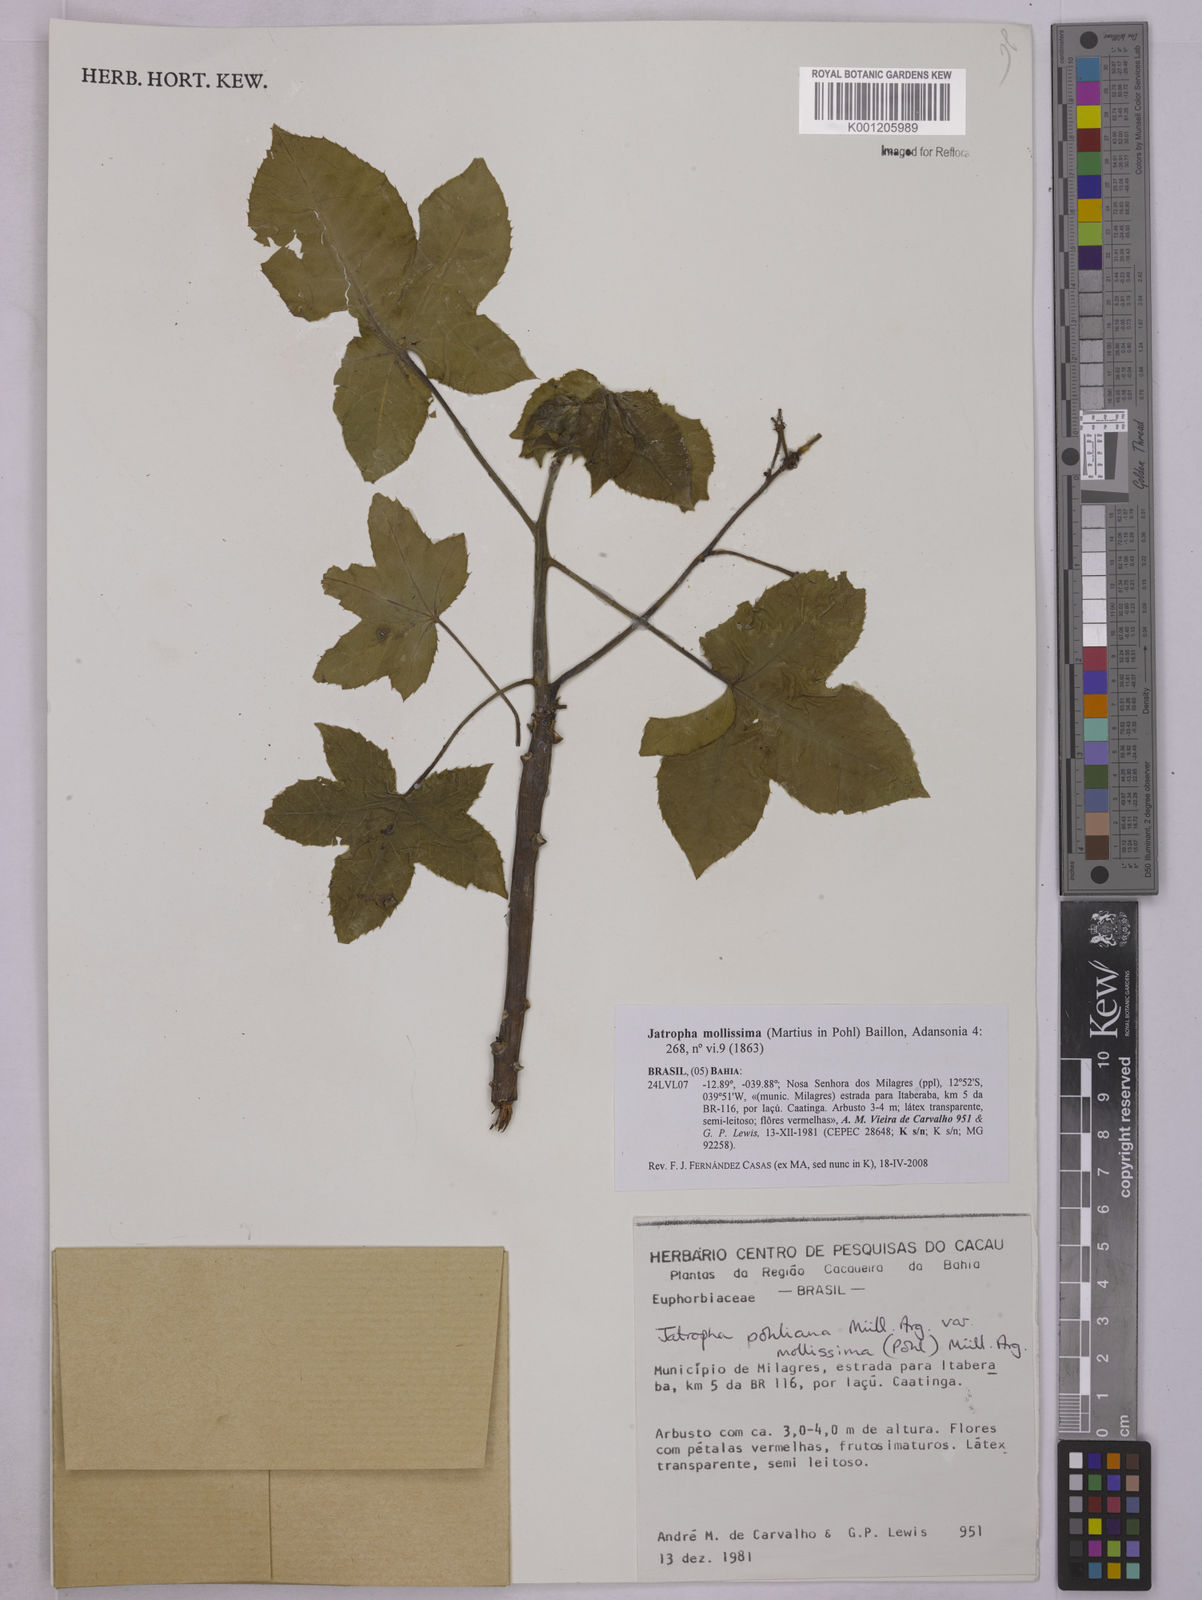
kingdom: Plantae
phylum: Tracheophyta
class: Magnoliopsida
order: Malpighiales
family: Euphorbiaceae
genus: Jatropha
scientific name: Jatropha mollissima
